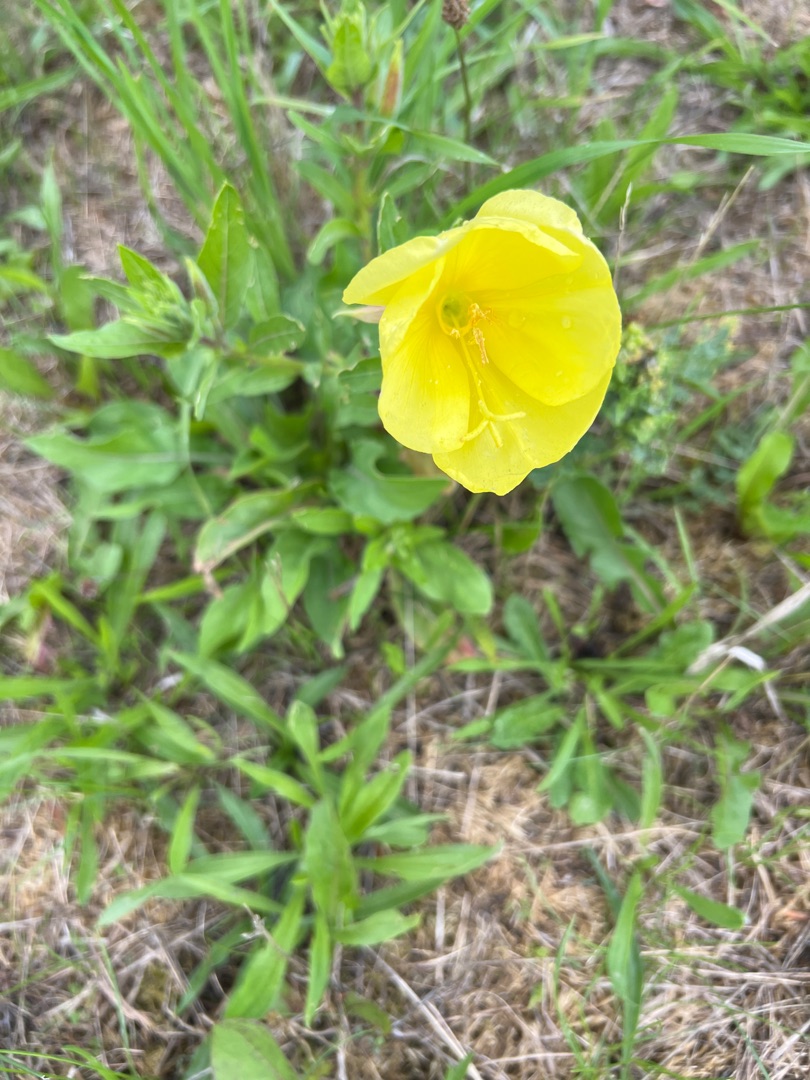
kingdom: Plantae
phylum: Tracheophyta
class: Magnoliopsida
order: Myrtales
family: Onagraceae
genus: Oenothera
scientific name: Oenothera glazioviana
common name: Kæmpe-natlys
